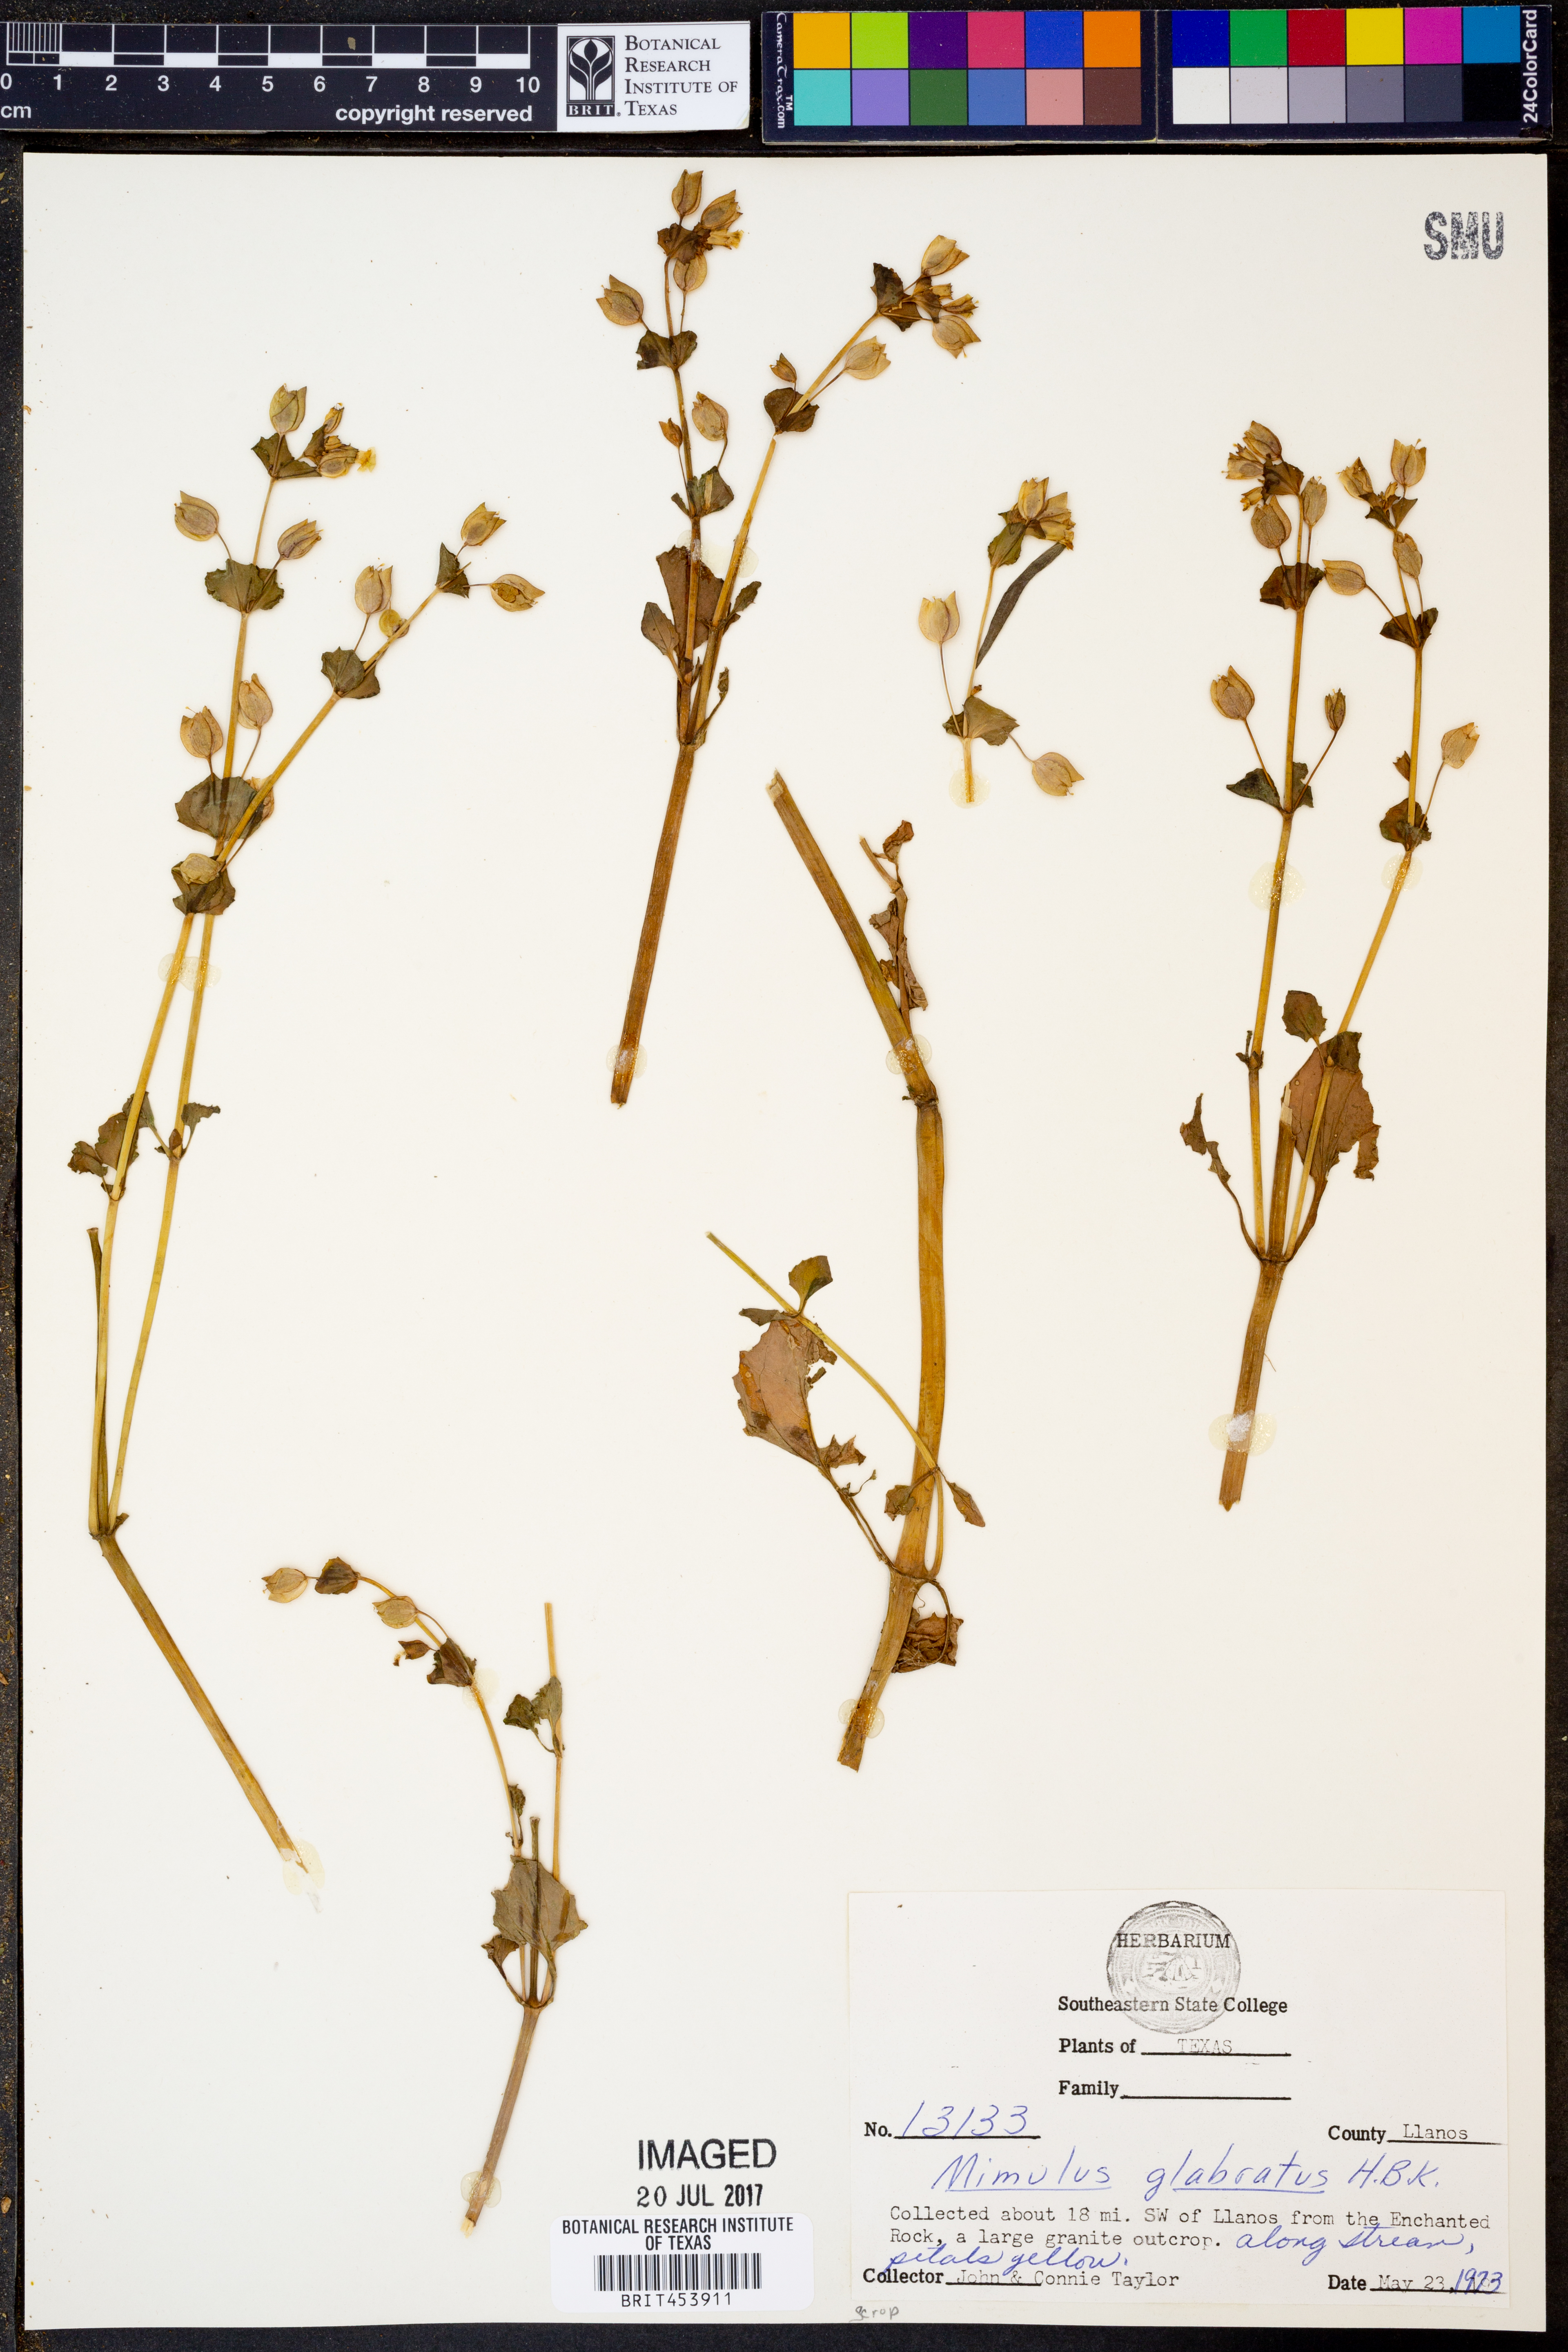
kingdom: Plantae
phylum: Tracheophyta
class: Magnoliopsida
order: Lamiales
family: Phrymaceae
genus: Erythranthe
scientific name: Erythranthe glabrata
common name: Round-leaved monkeyflower
